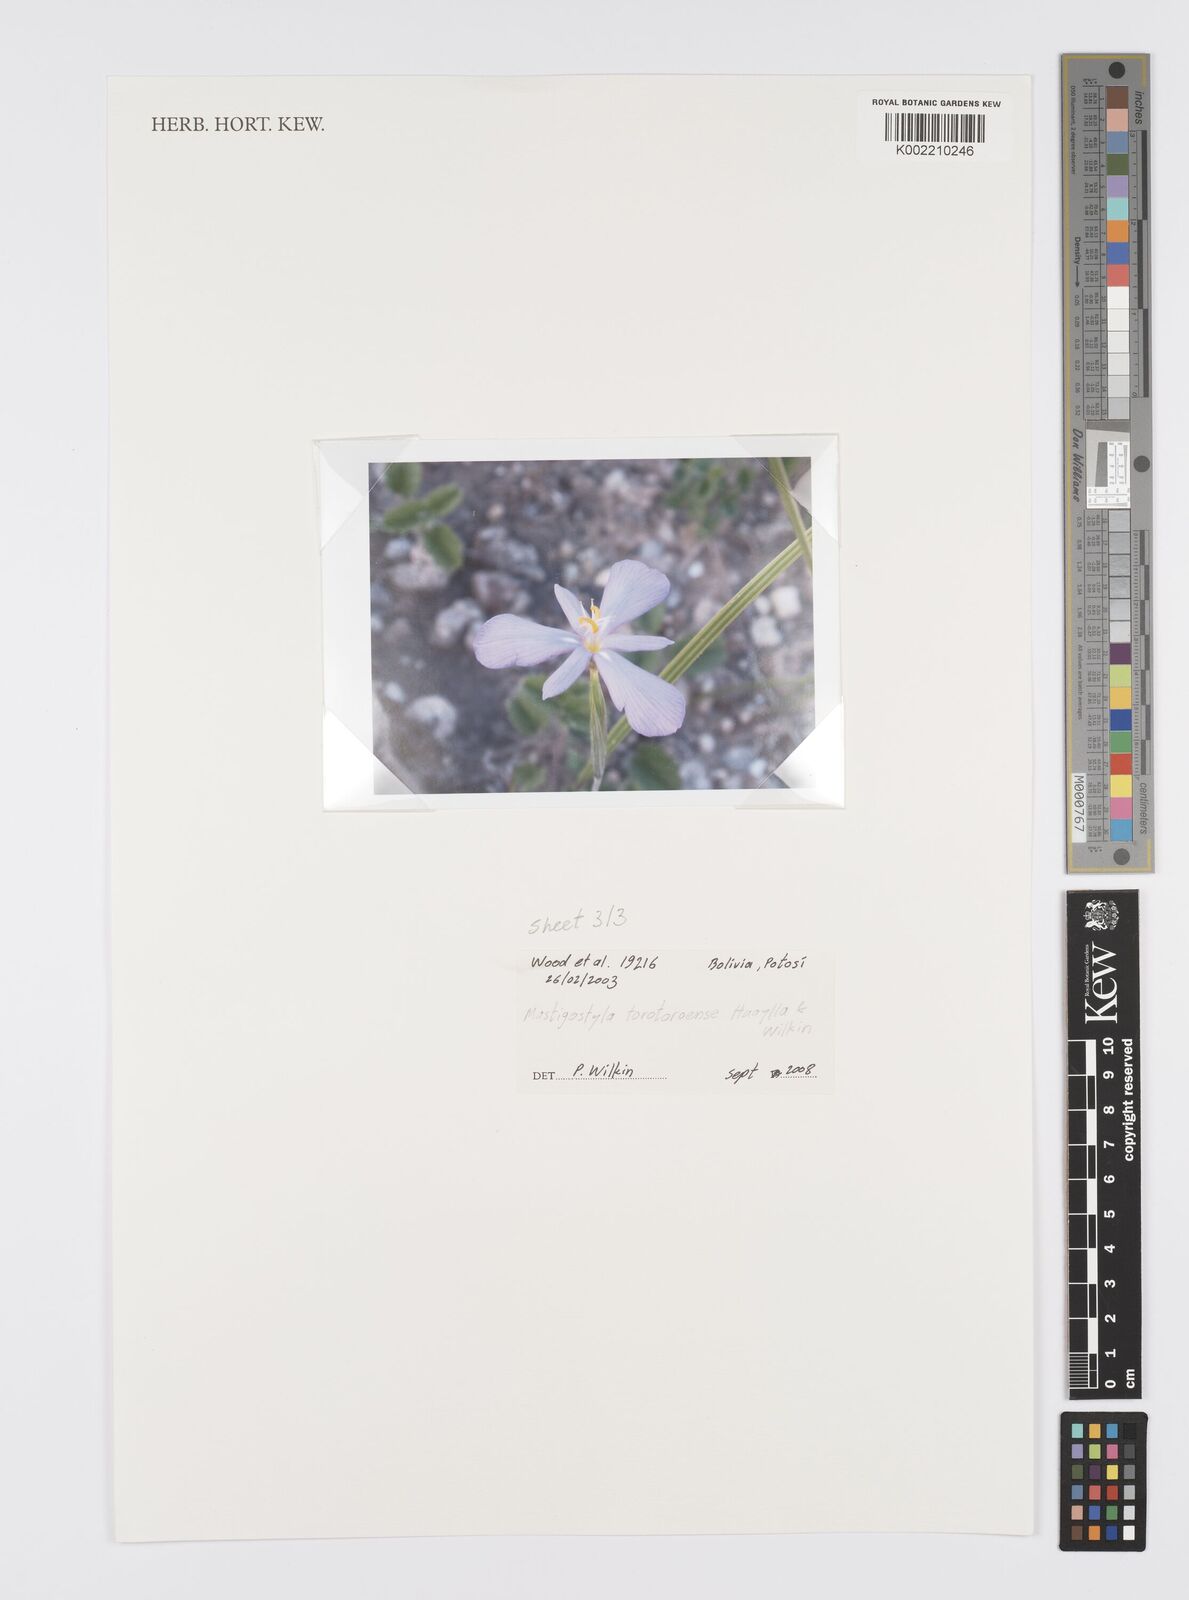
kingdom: Plantae
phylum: Tracheophyta
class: Liliopsida
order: Asparagales
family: Iridaceae
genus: Mastigostyla
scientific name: Mastigostyla torotoroensis
